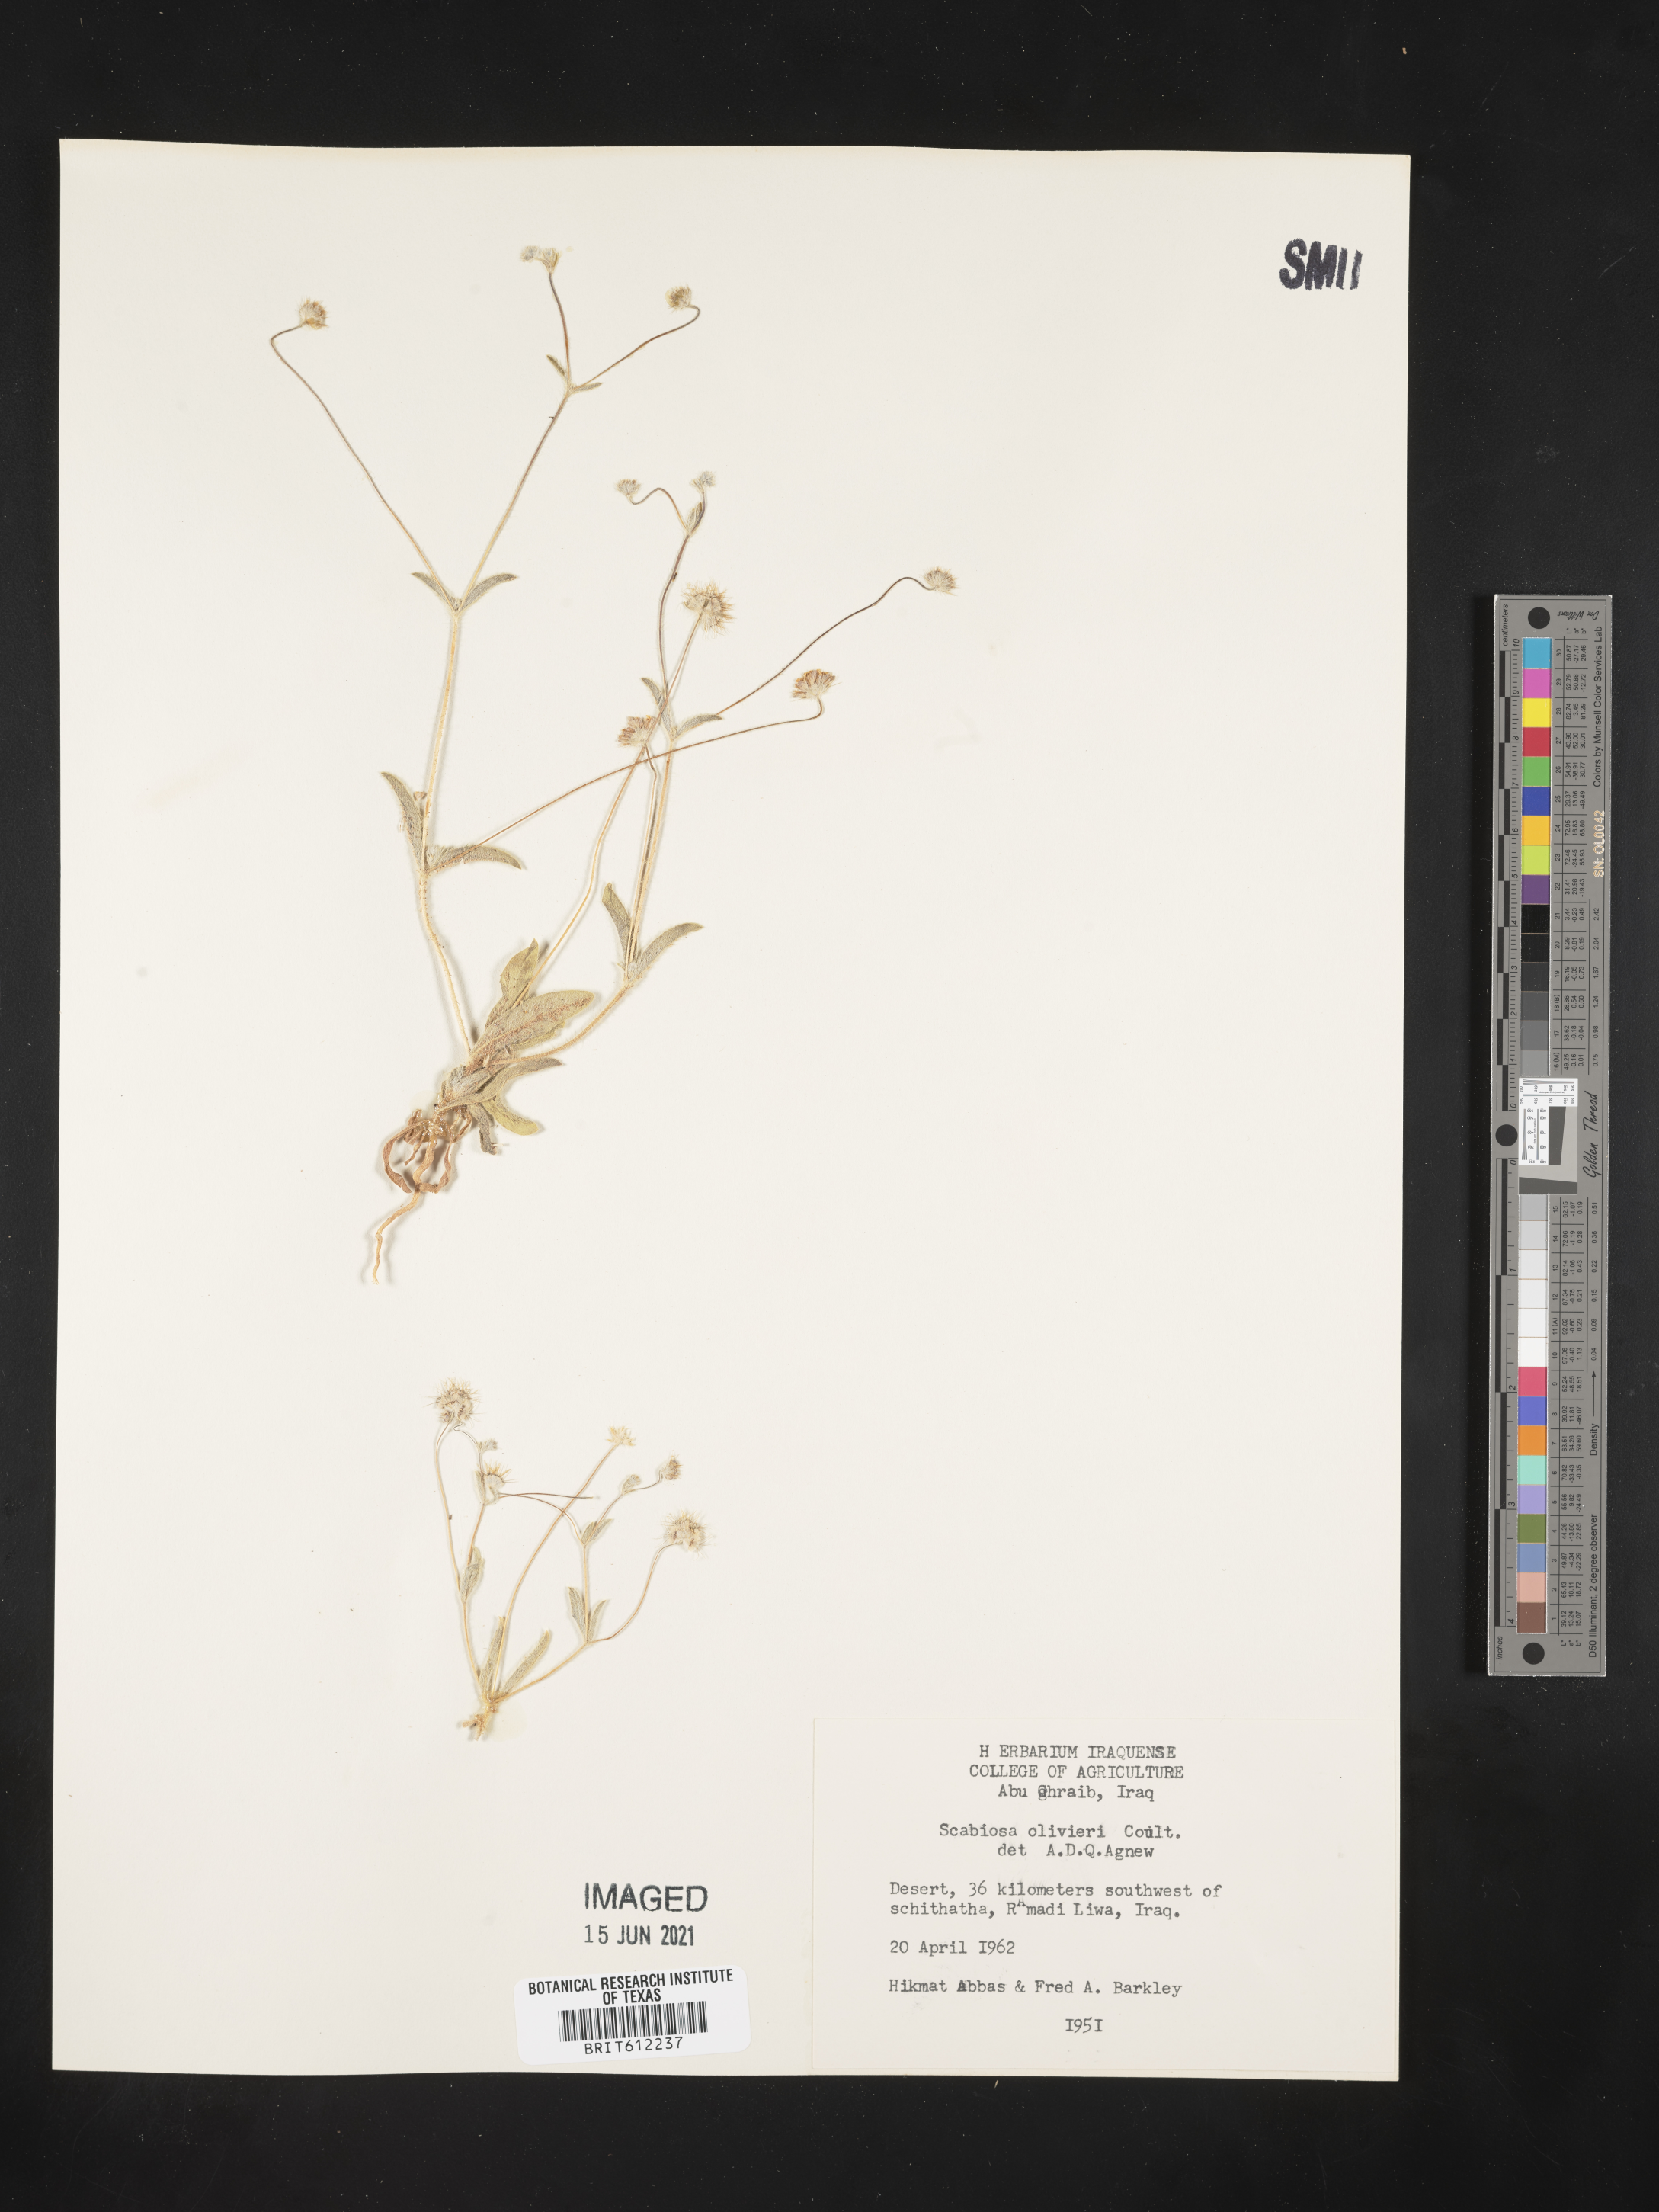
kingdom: Plantae
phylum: Tracheophyta
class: Magnoliopsida
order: Dipsacales
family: Caprifoliaceae
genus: Lomelosia
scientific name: Lomelosia olivieri
